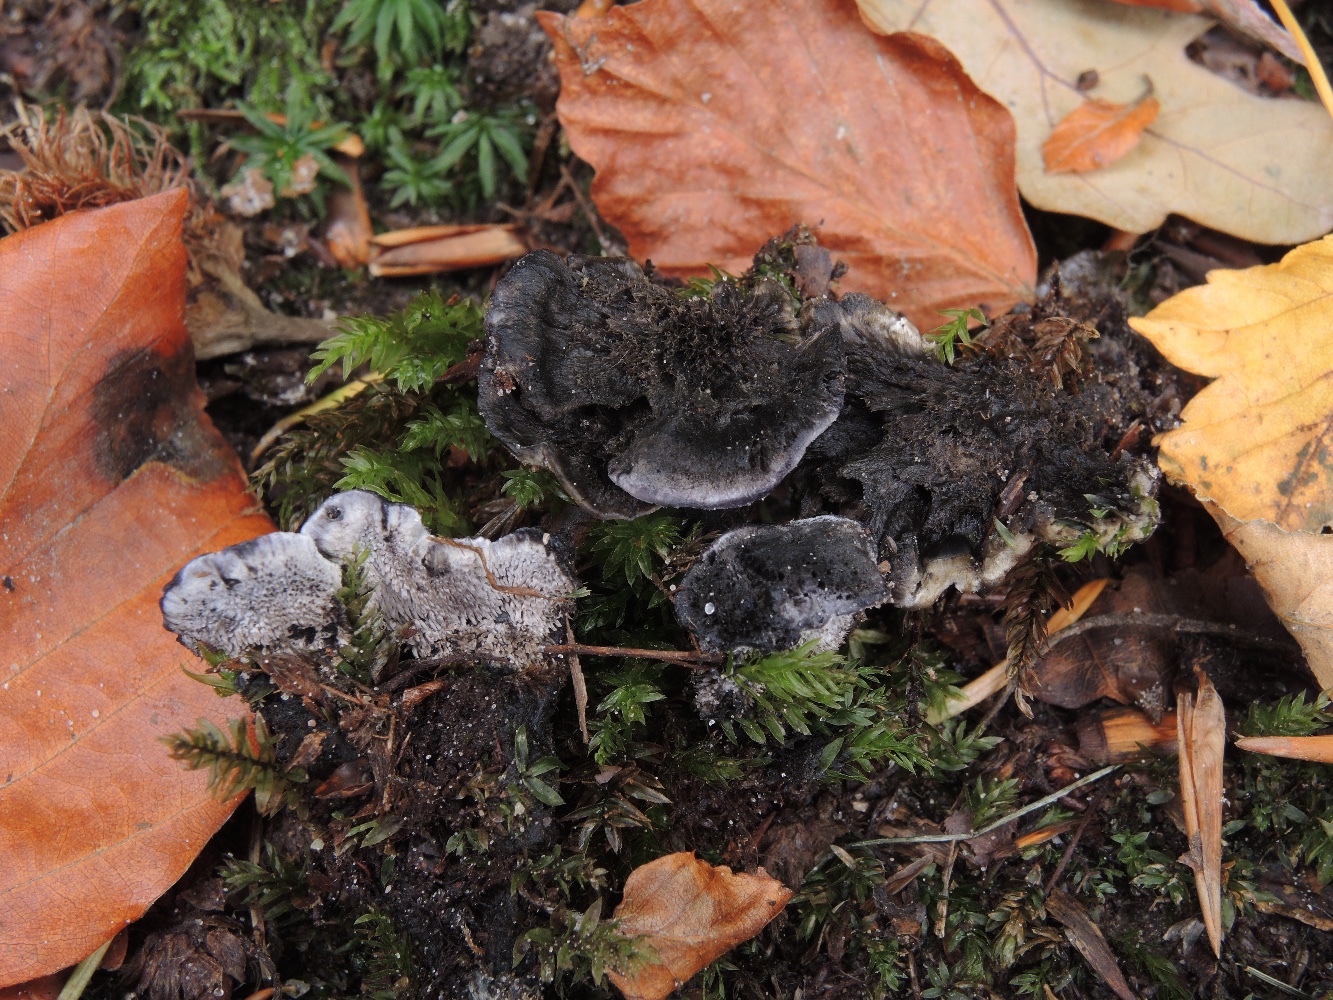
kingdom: Fungi
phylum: Basidiomycota
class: Agaricomycetes
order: Thelephorales
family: Thelephoraceae
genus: Phellodon
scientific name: Phellodon
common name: mørk duftpigsvamp
